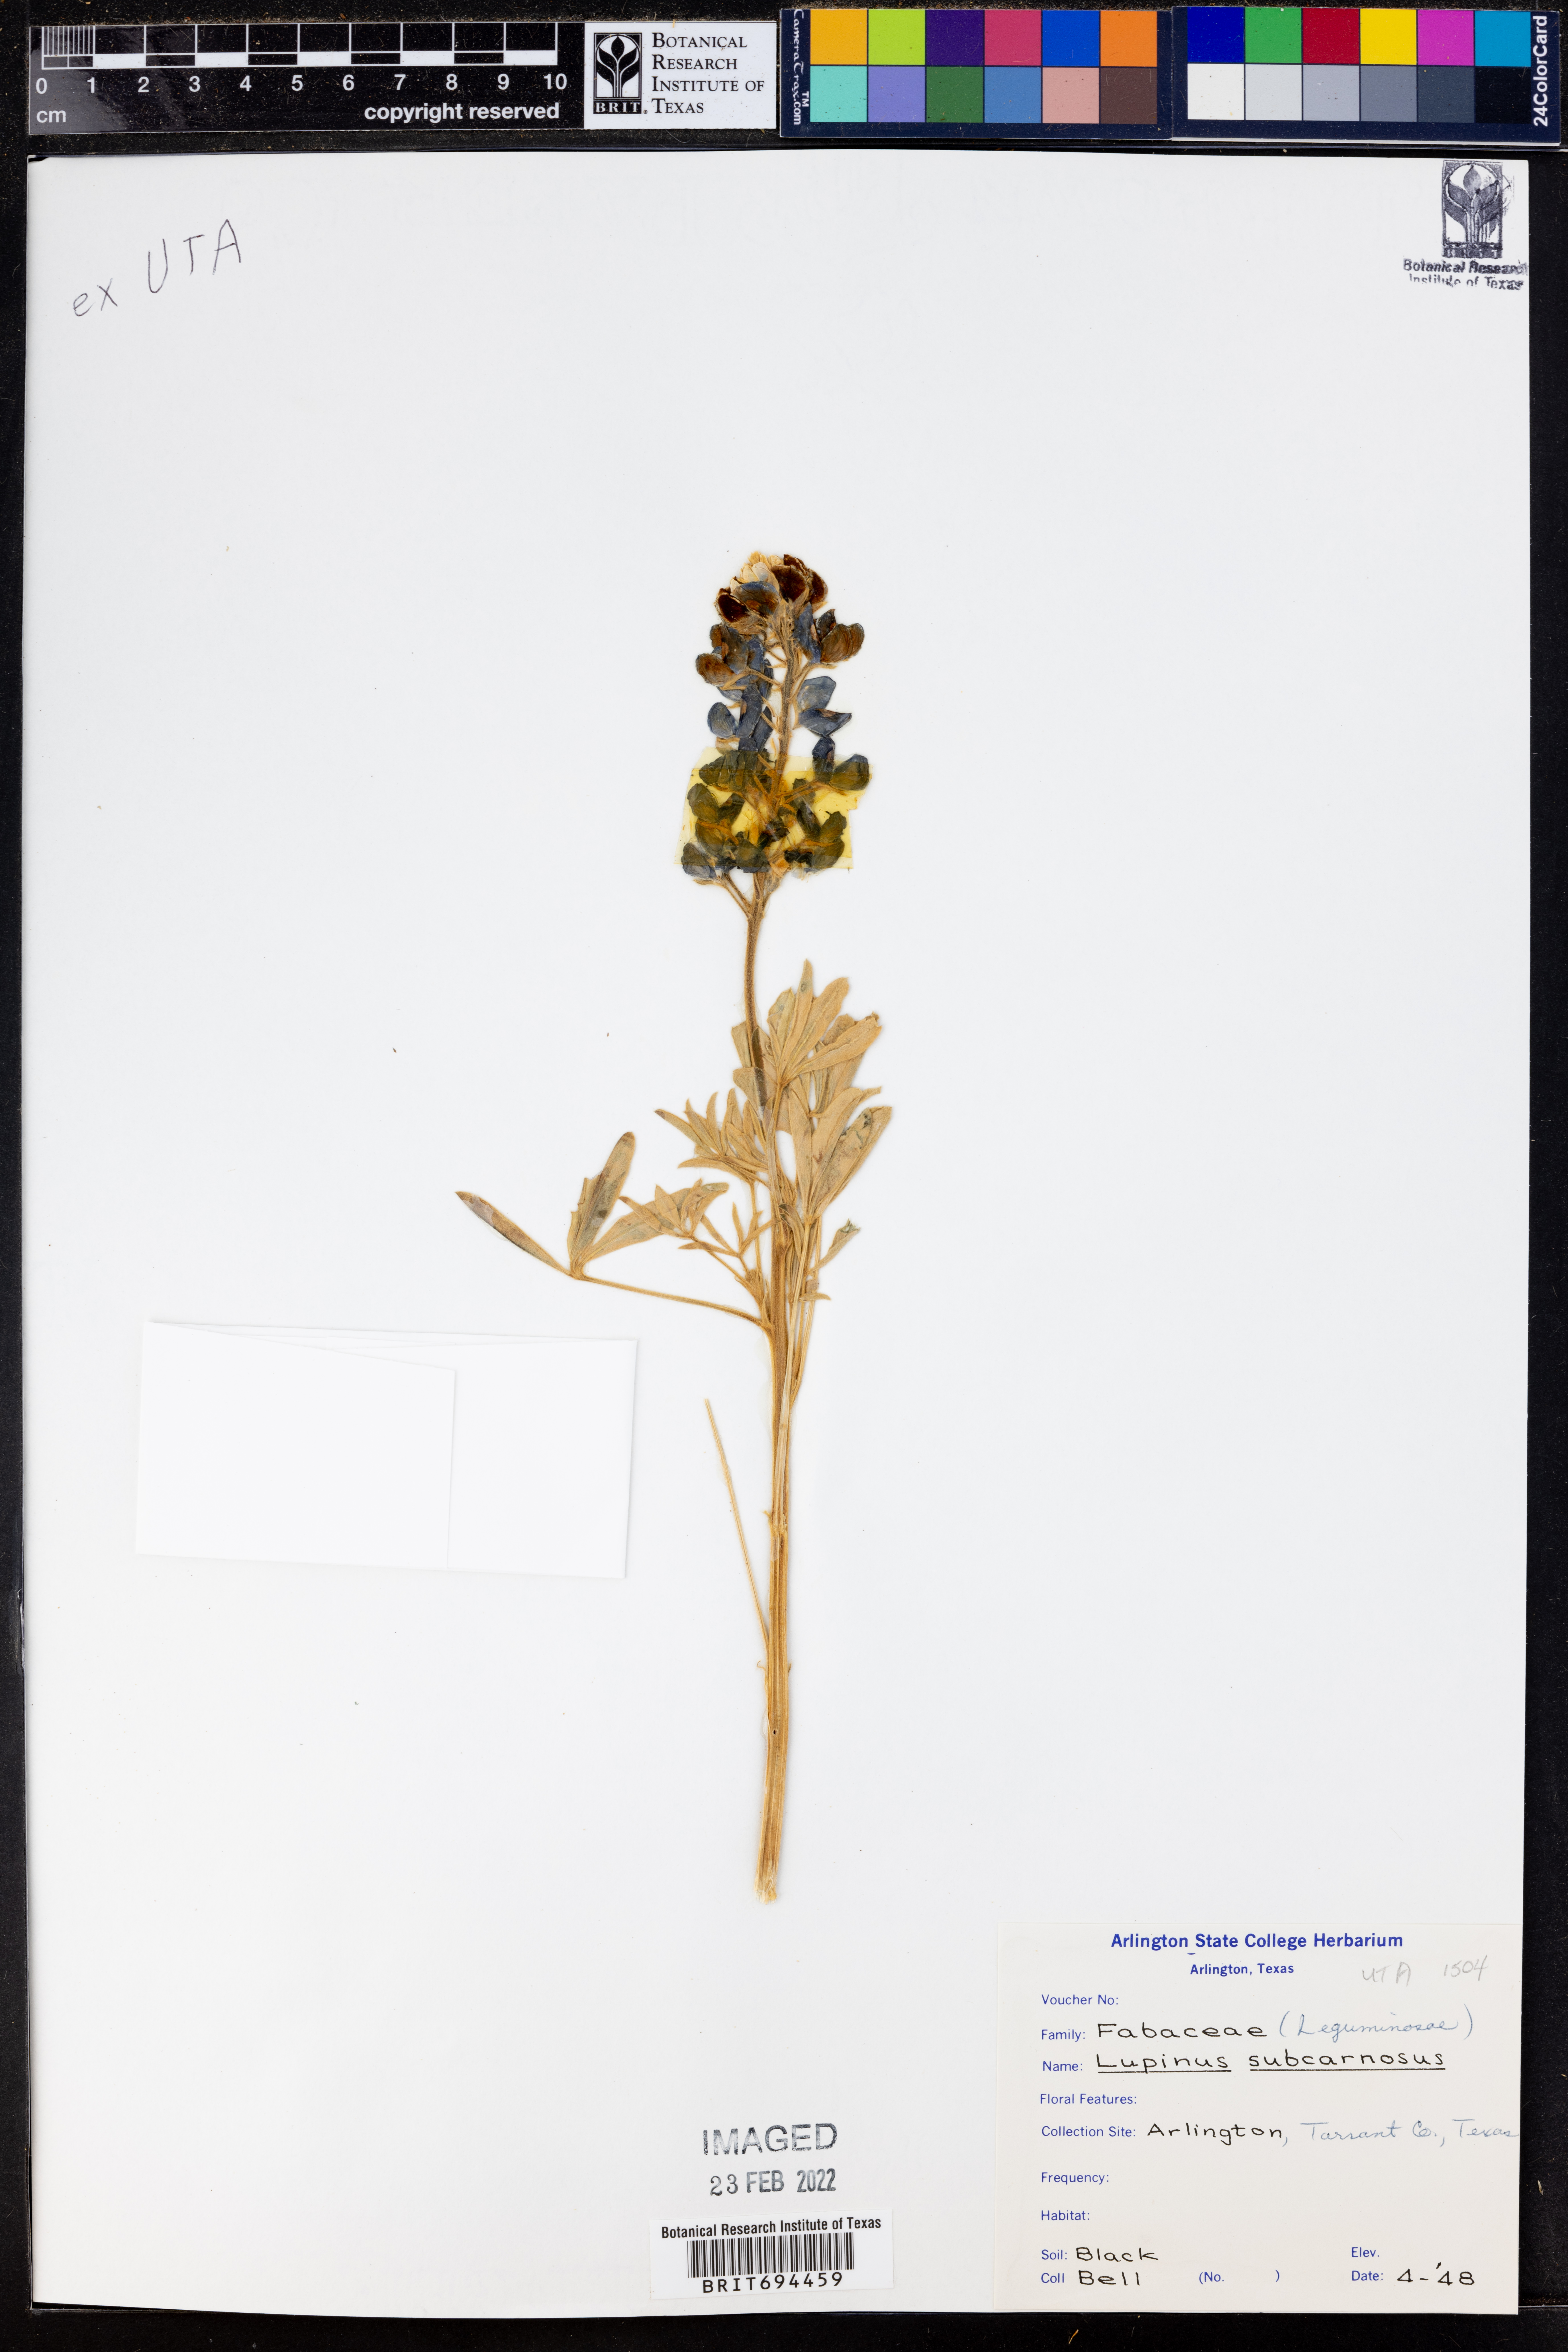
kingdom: Plantae
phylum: Tracheophyta
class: Magnoliopsida
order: Fabales
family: Fabaceae
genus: Lupinus
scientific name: Lupinus subcarnosus
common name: Texas bluebonnet
